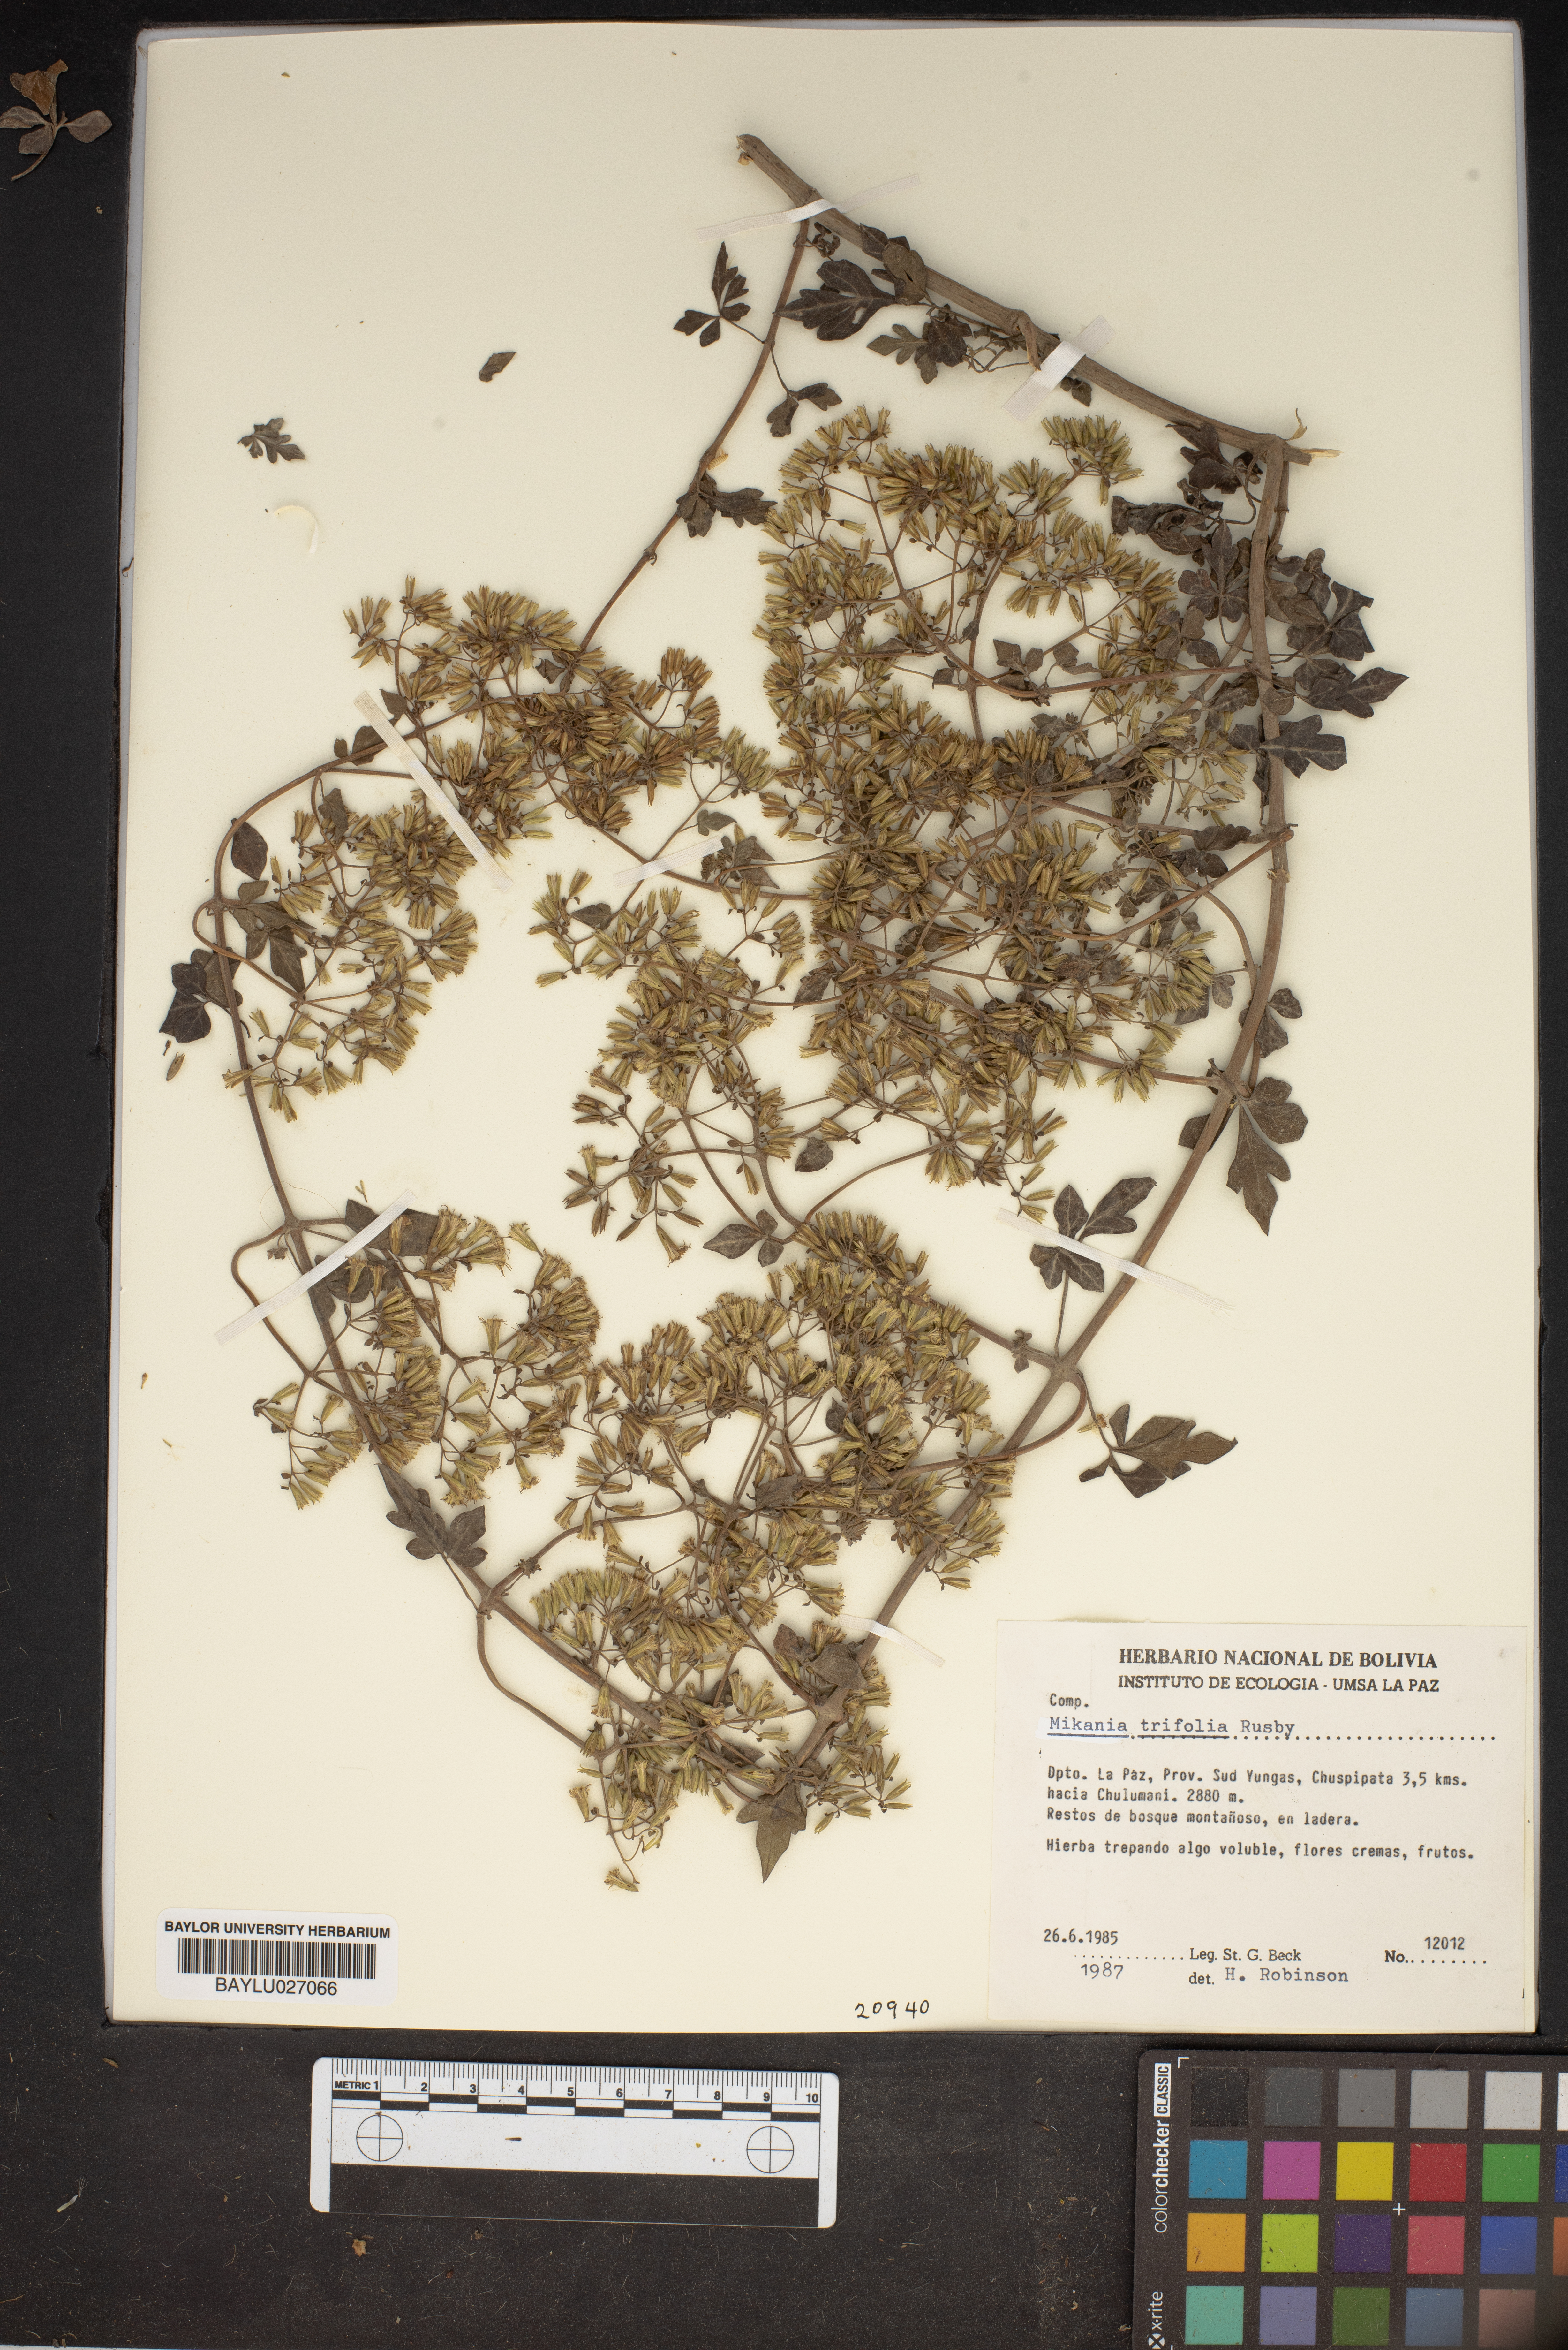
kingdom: Plantae
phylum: Tracheophyta
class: Magnoliopsida
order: Asterales
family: Asteraceae
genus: Mikania
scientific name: Mikania ternata
